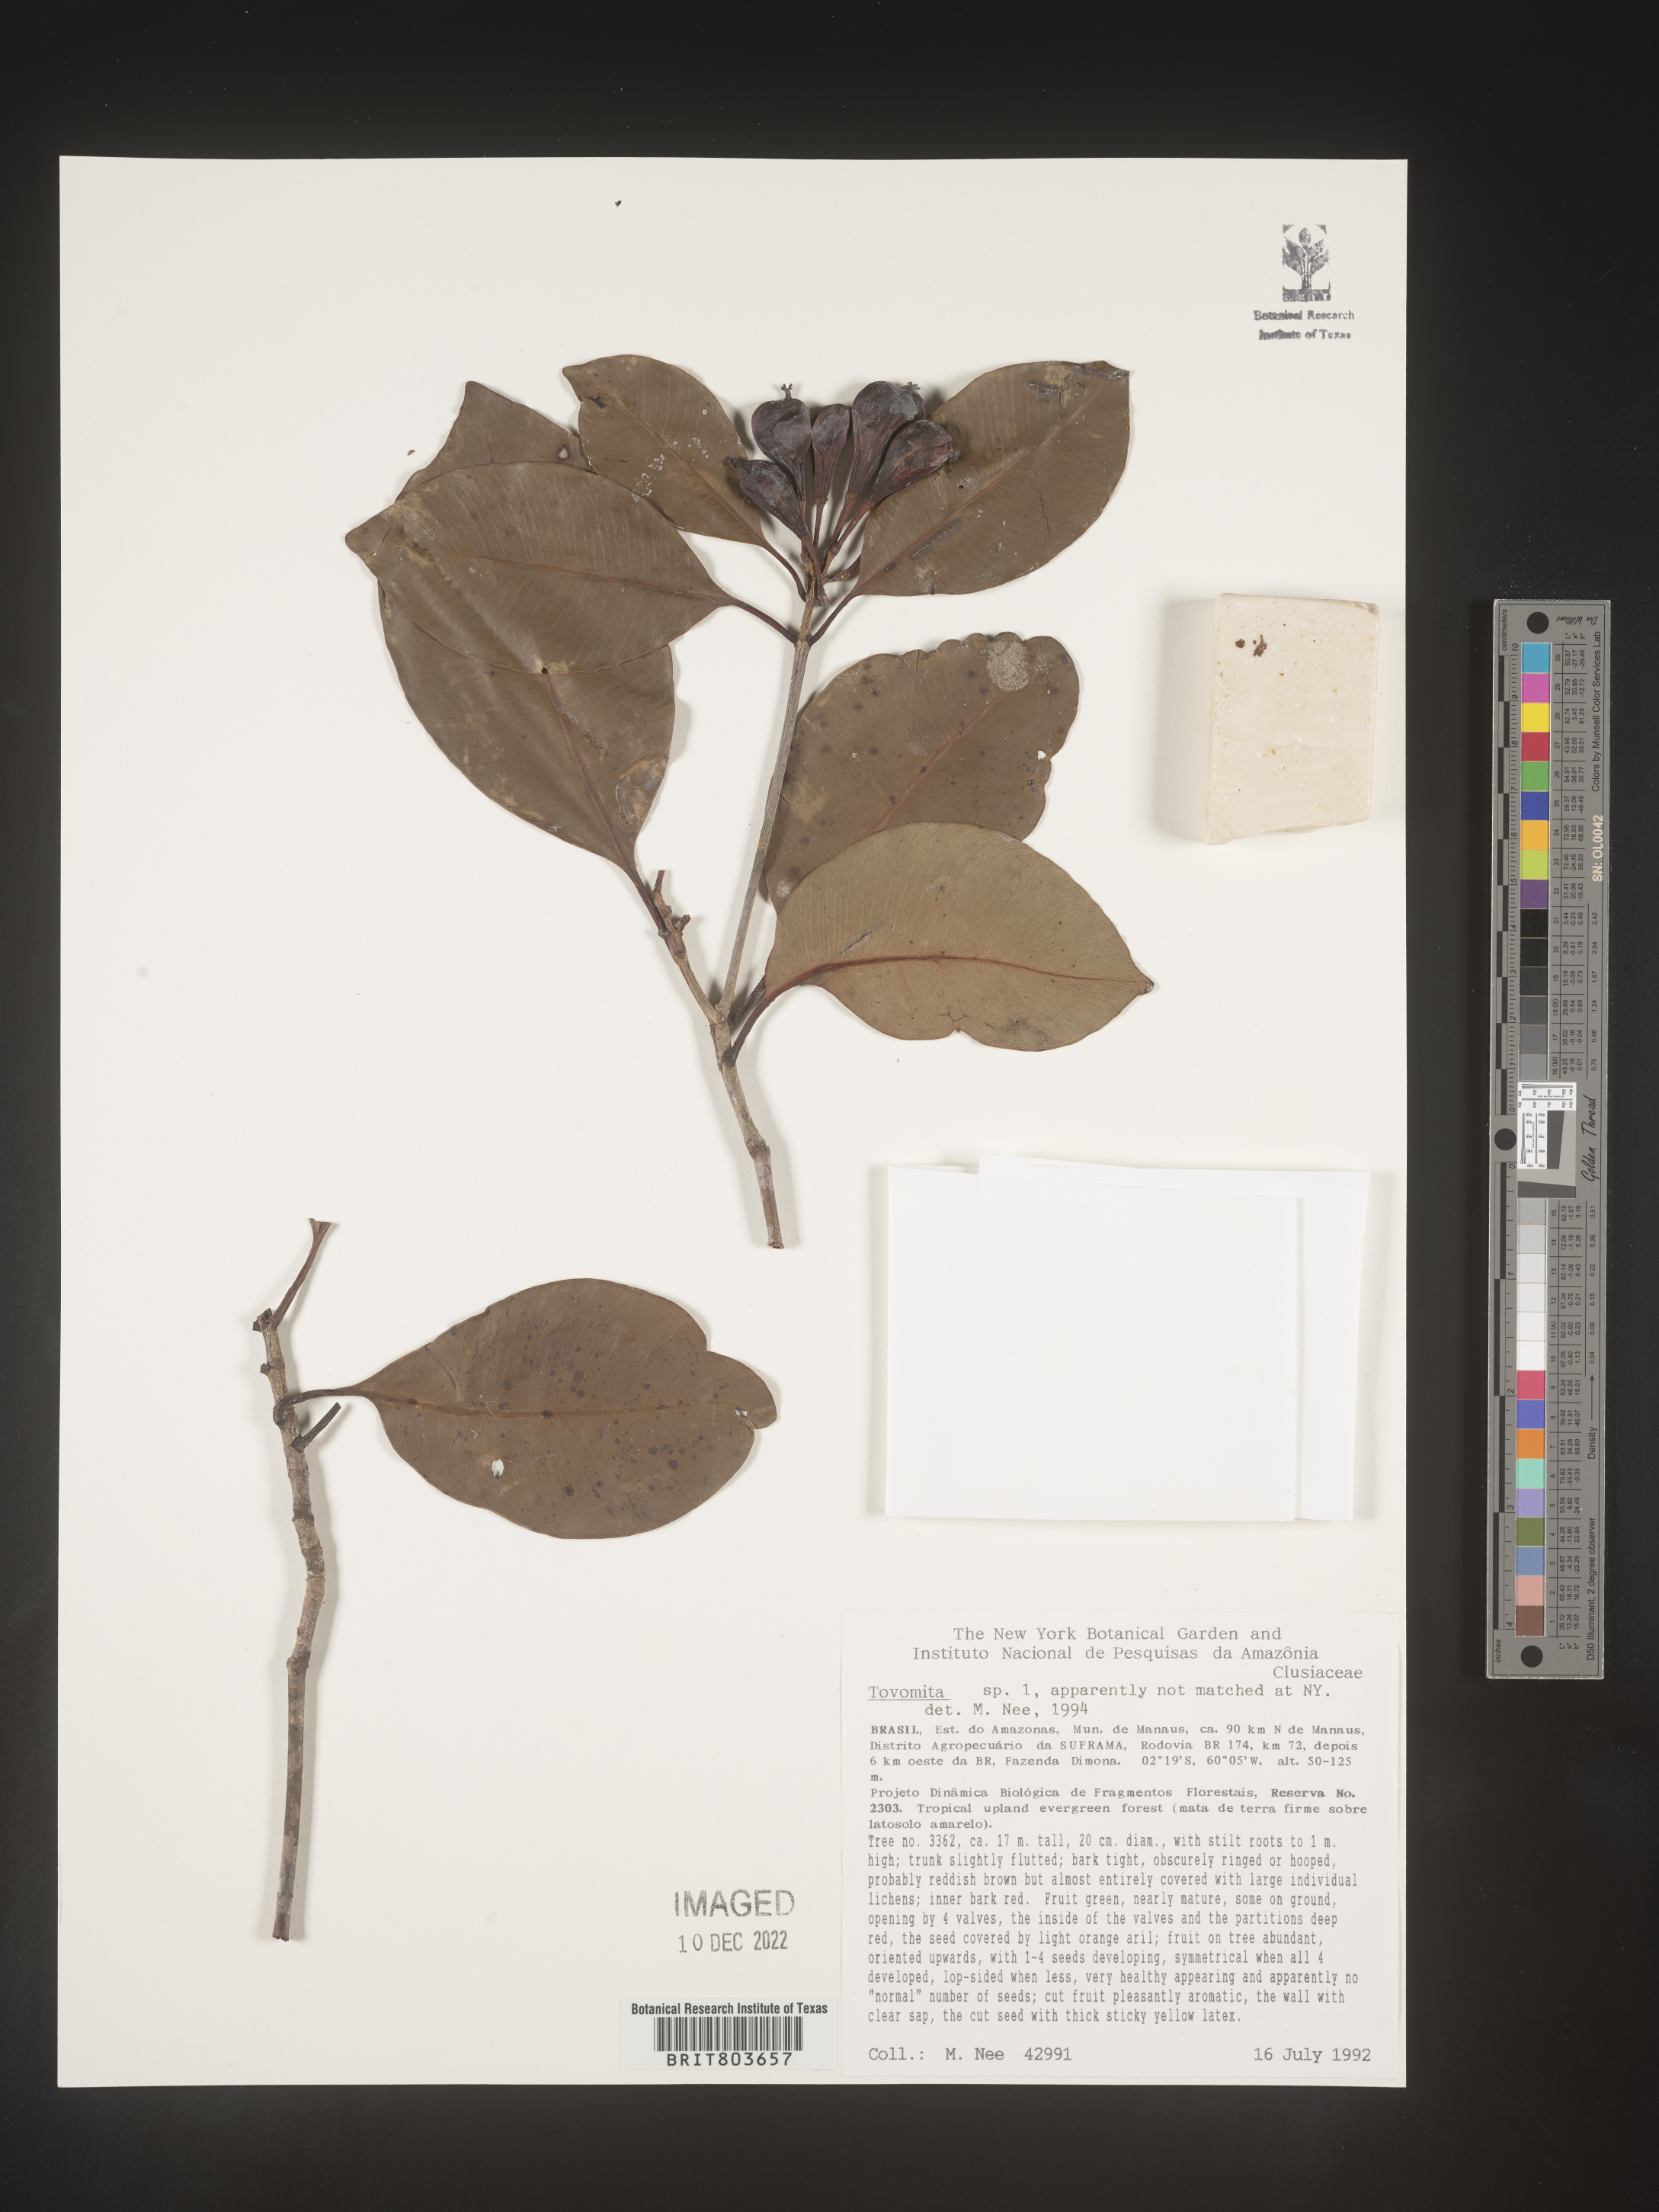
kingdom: Plantae
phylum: Tracheophyta
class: Magnoliopsida
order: Malpighiales
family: Clusiaceae
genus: Tovomita
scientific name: Tovomita
